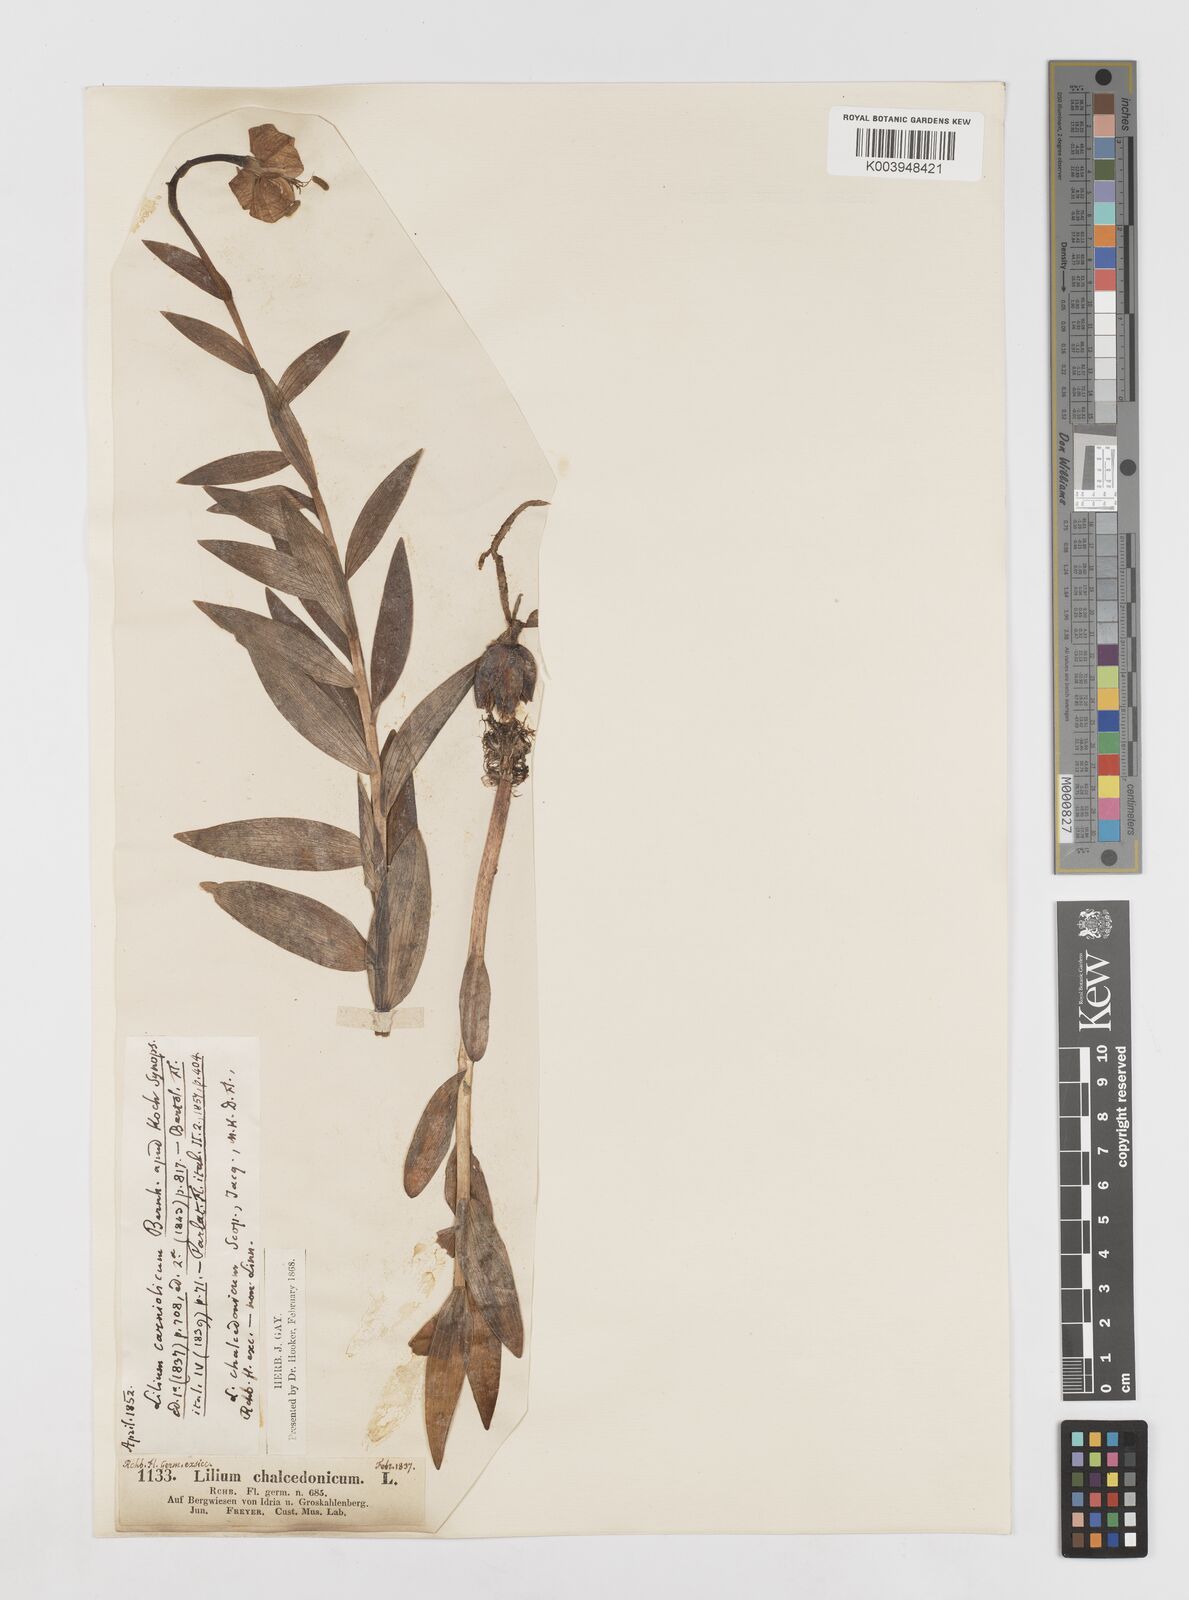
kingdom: Plantae
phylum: Tracheophyta
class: Liliopsida
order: Liliales
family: Liliaceae
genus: Lilium
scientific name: Lilium carniolicum
